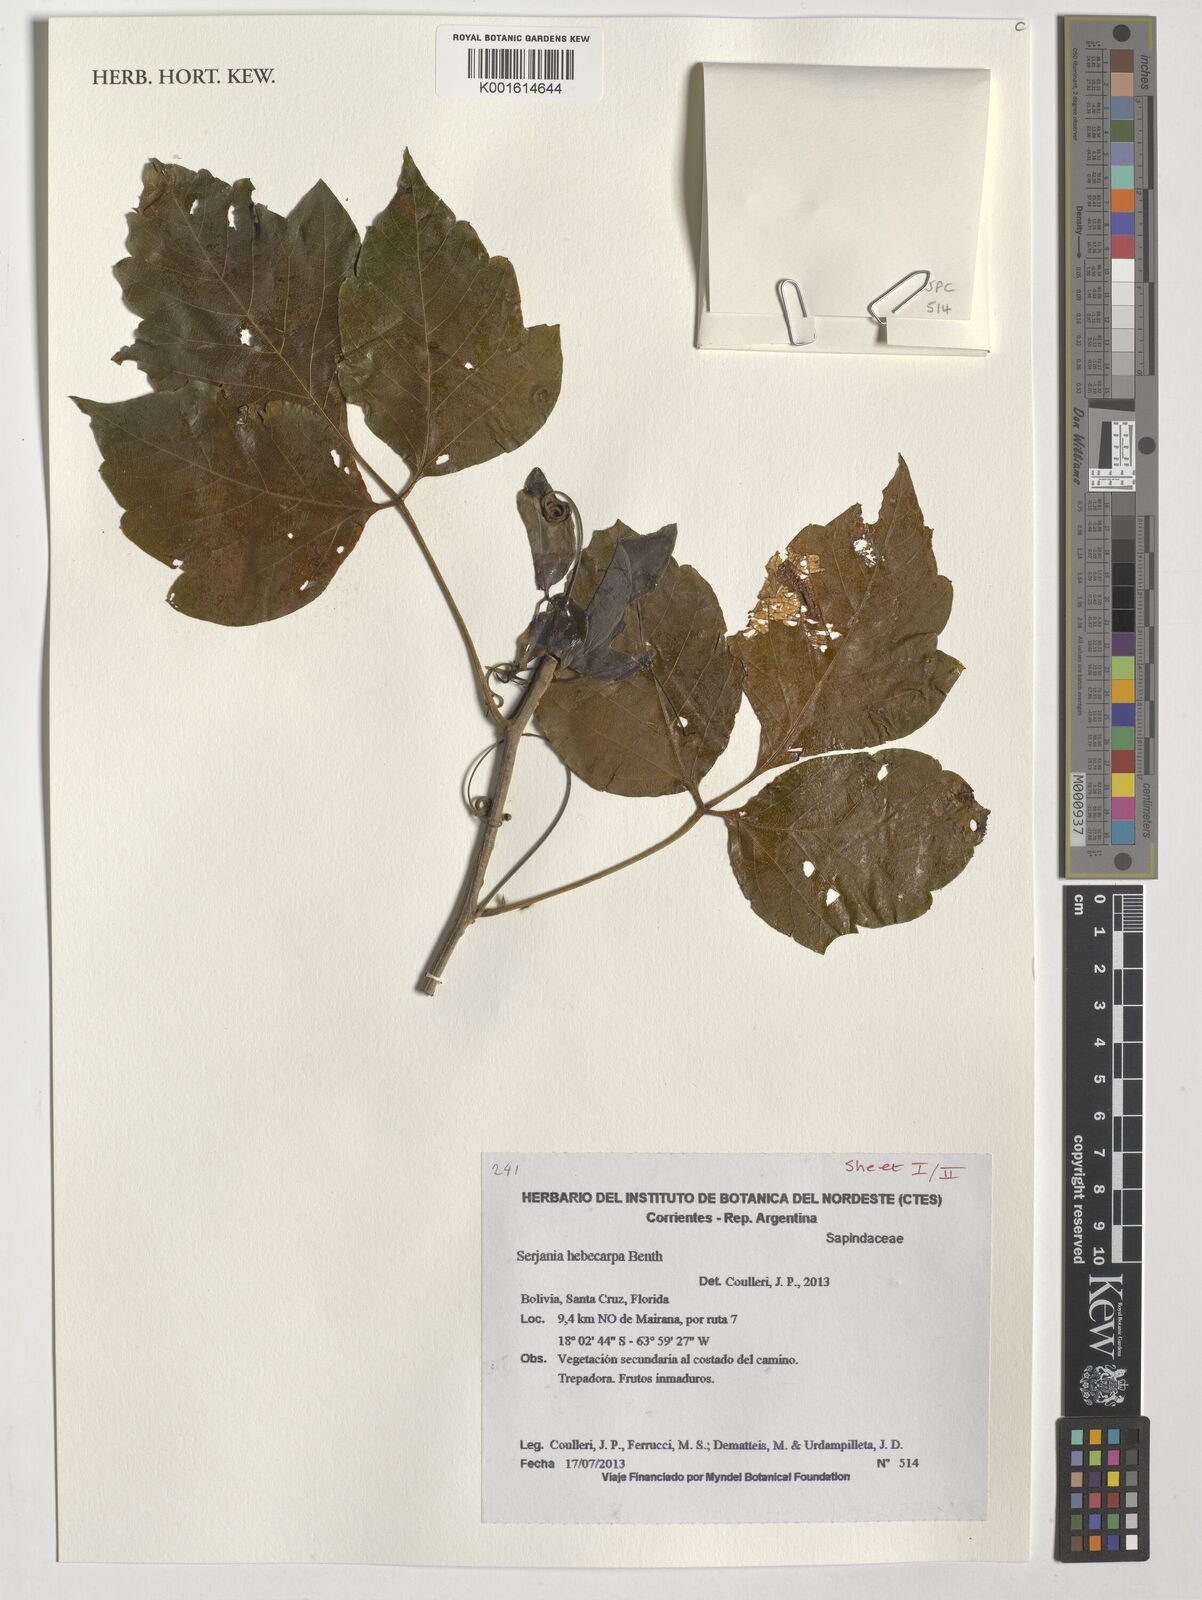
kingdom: Plantae
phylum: Tracheophyta
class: Magnoliopsida
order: Sapindales
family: Sapindaceae
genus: Serjania
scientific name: Serjania hebecarpa
